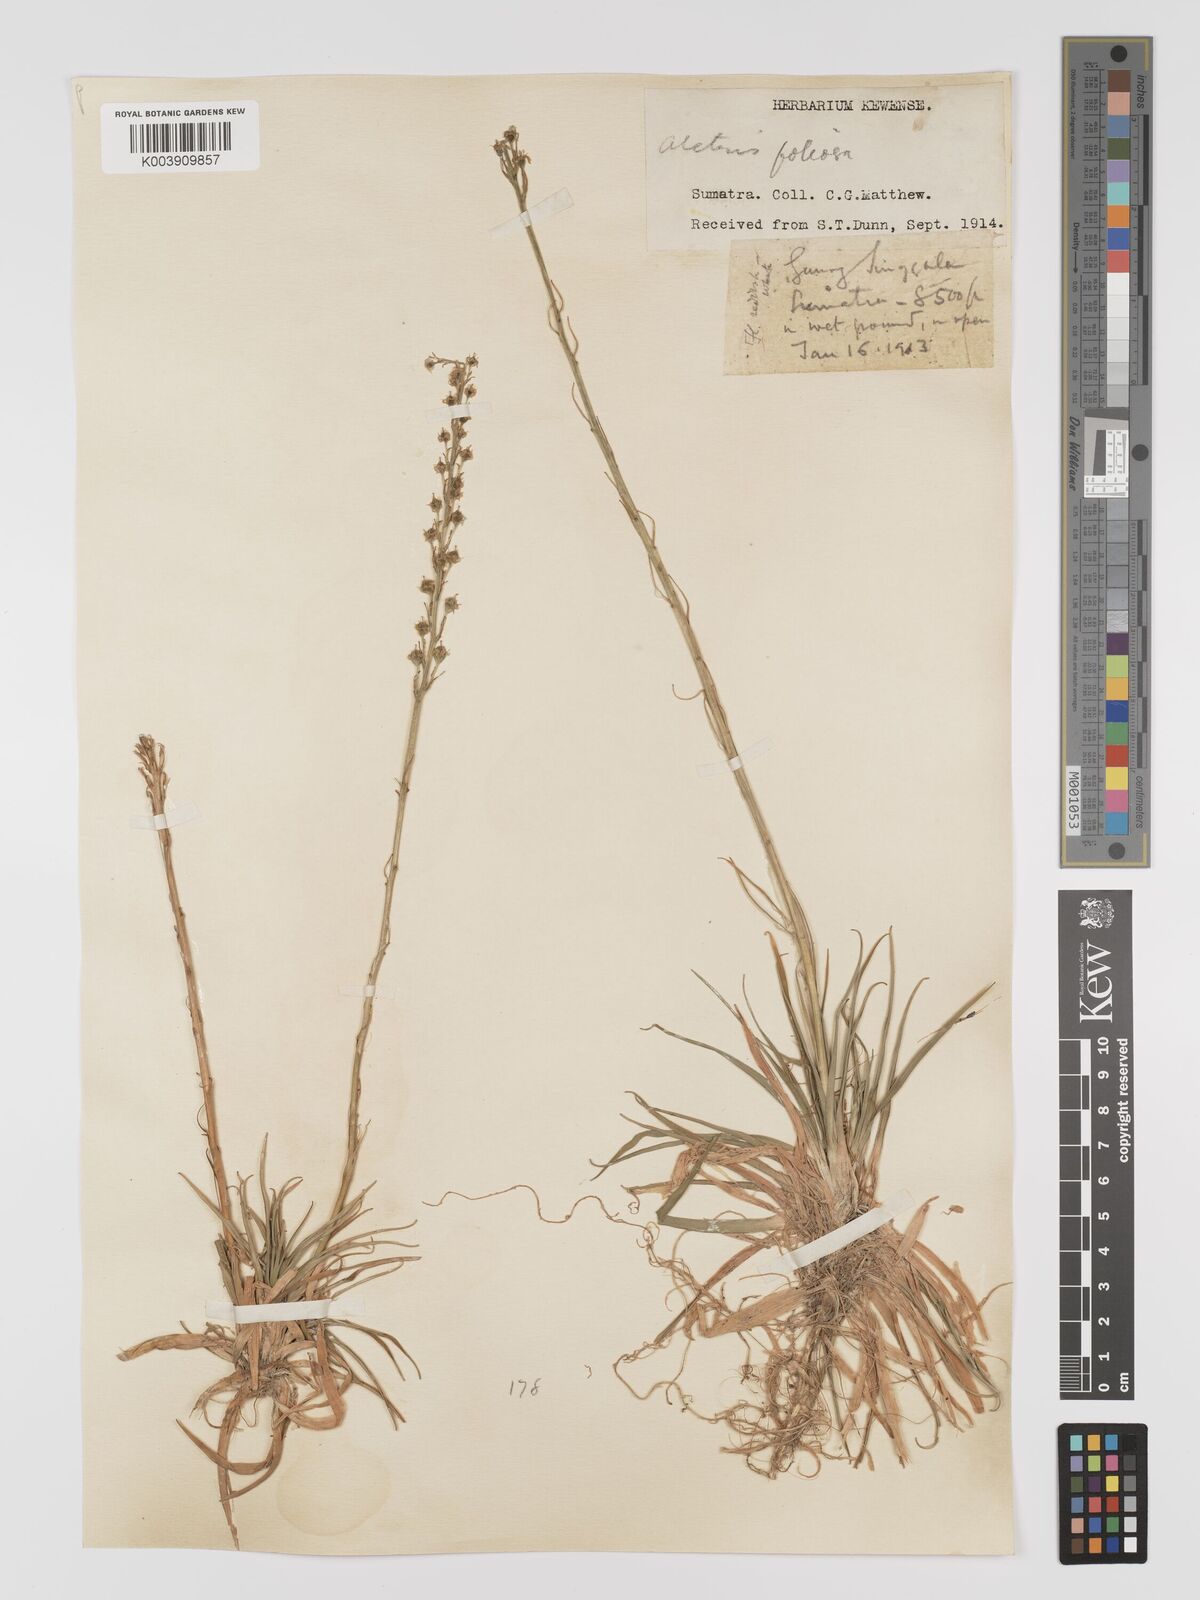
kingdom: Plantae
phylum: Tracheophyta
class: Liliopsida
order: Dioscoreales
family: Nartheciaceae
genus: Aletris
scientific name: Aletris foliolosa
